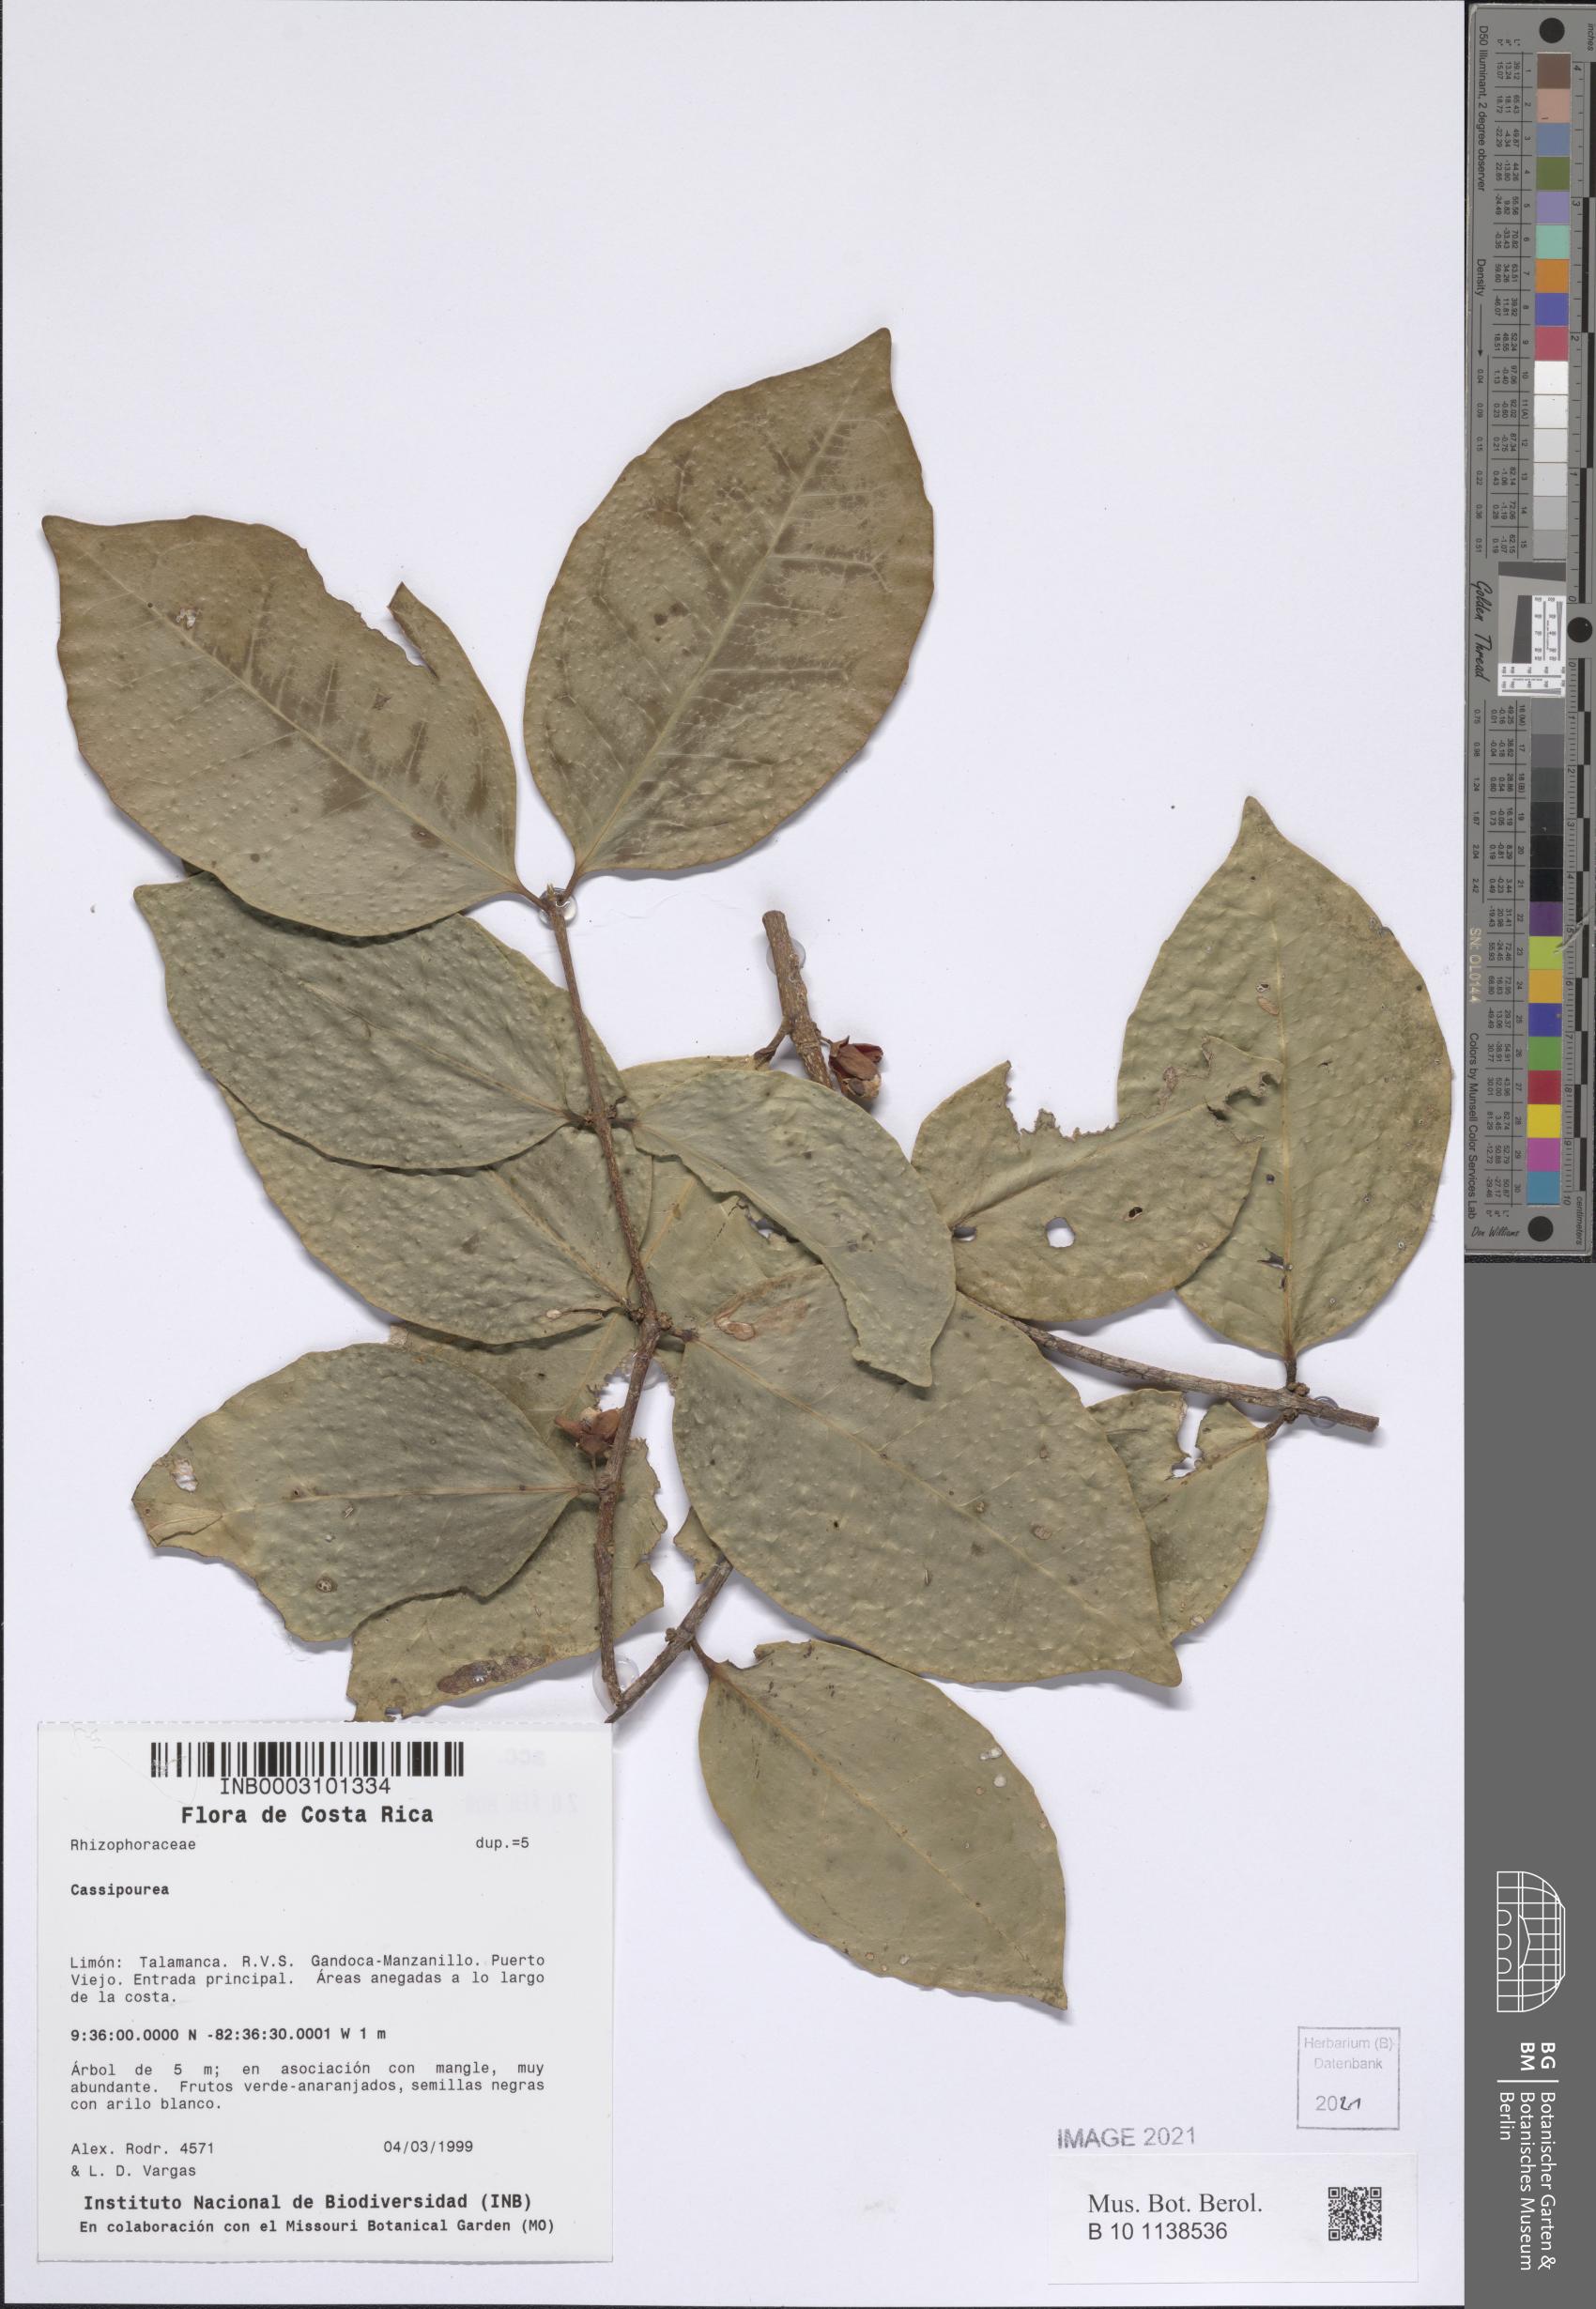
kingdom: Plantae
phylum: Tracheophyta
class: Magnoliopsida
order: Malpighiales
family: Rhizophoraceae
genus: Cassipourea
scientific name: Cassipourea
